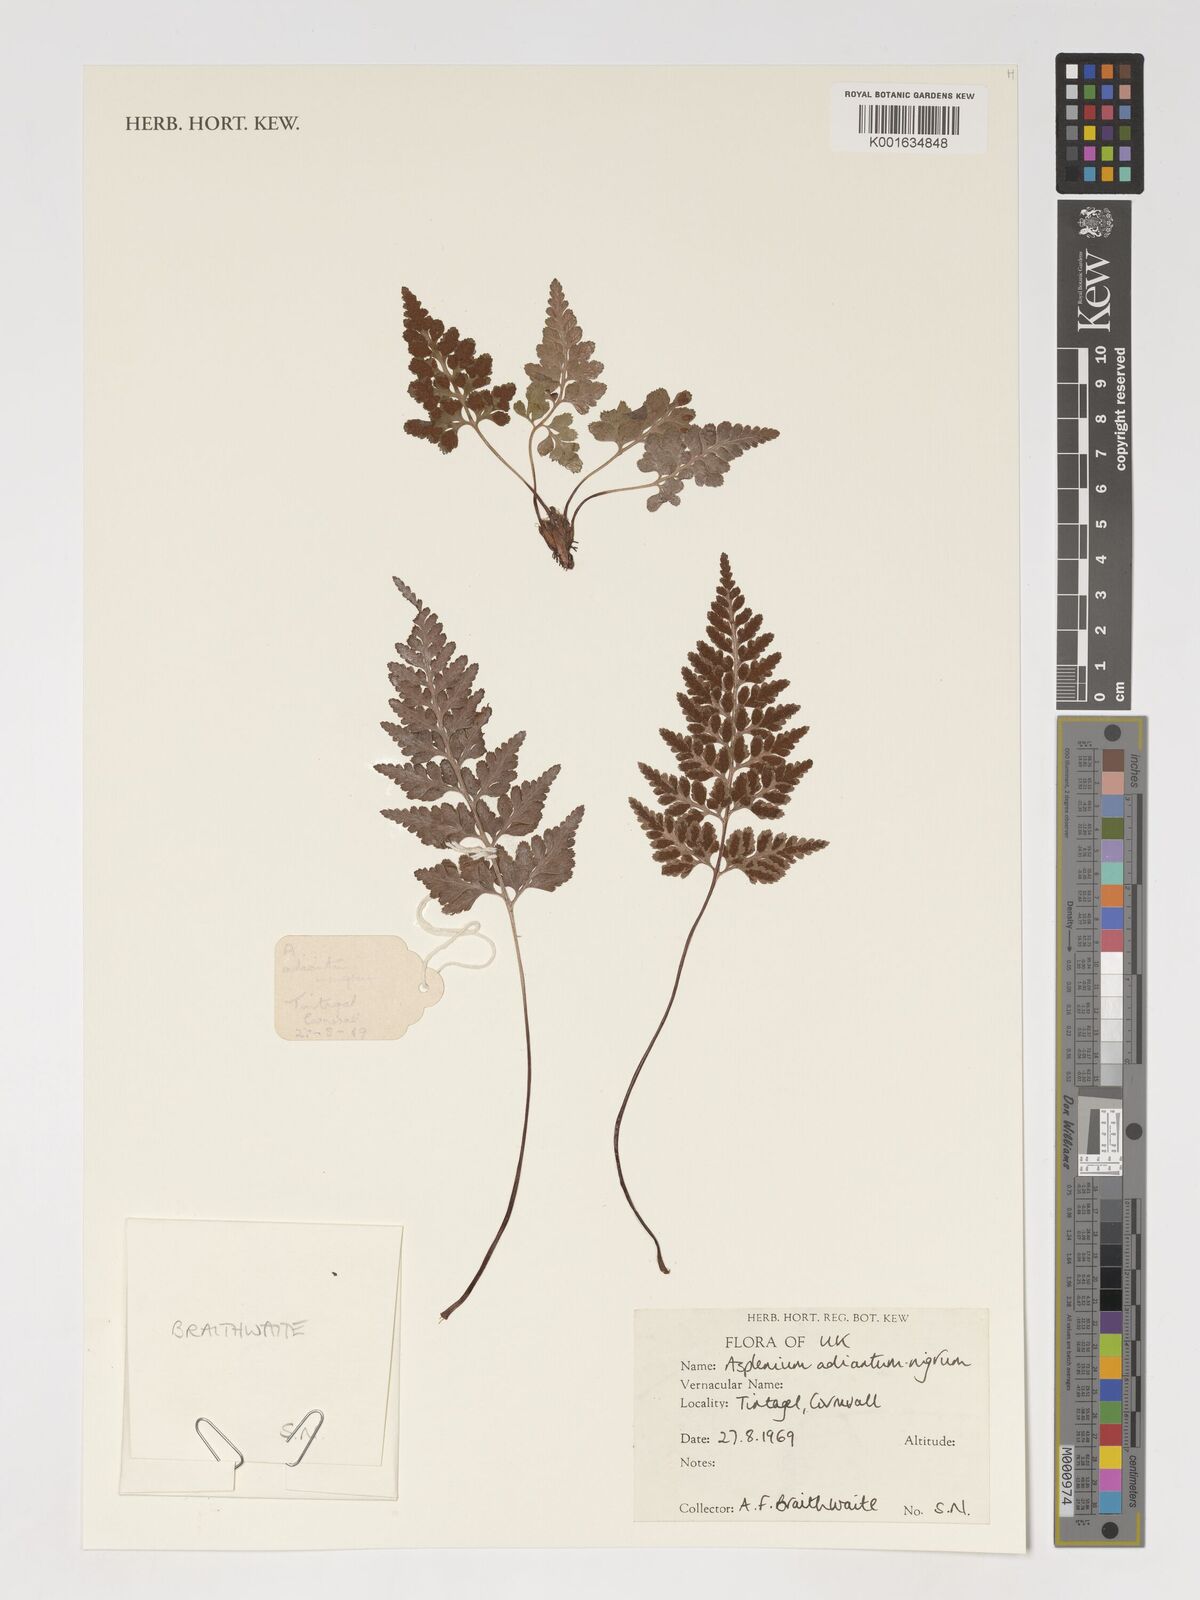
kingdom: Plantae
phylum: Tracheophyta
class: Polypodiopsida
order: Polypodiales
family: Aspleniaceae
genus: Asplenium
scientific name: Asplenium adiantum-nigrum
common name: Black spleenwort
